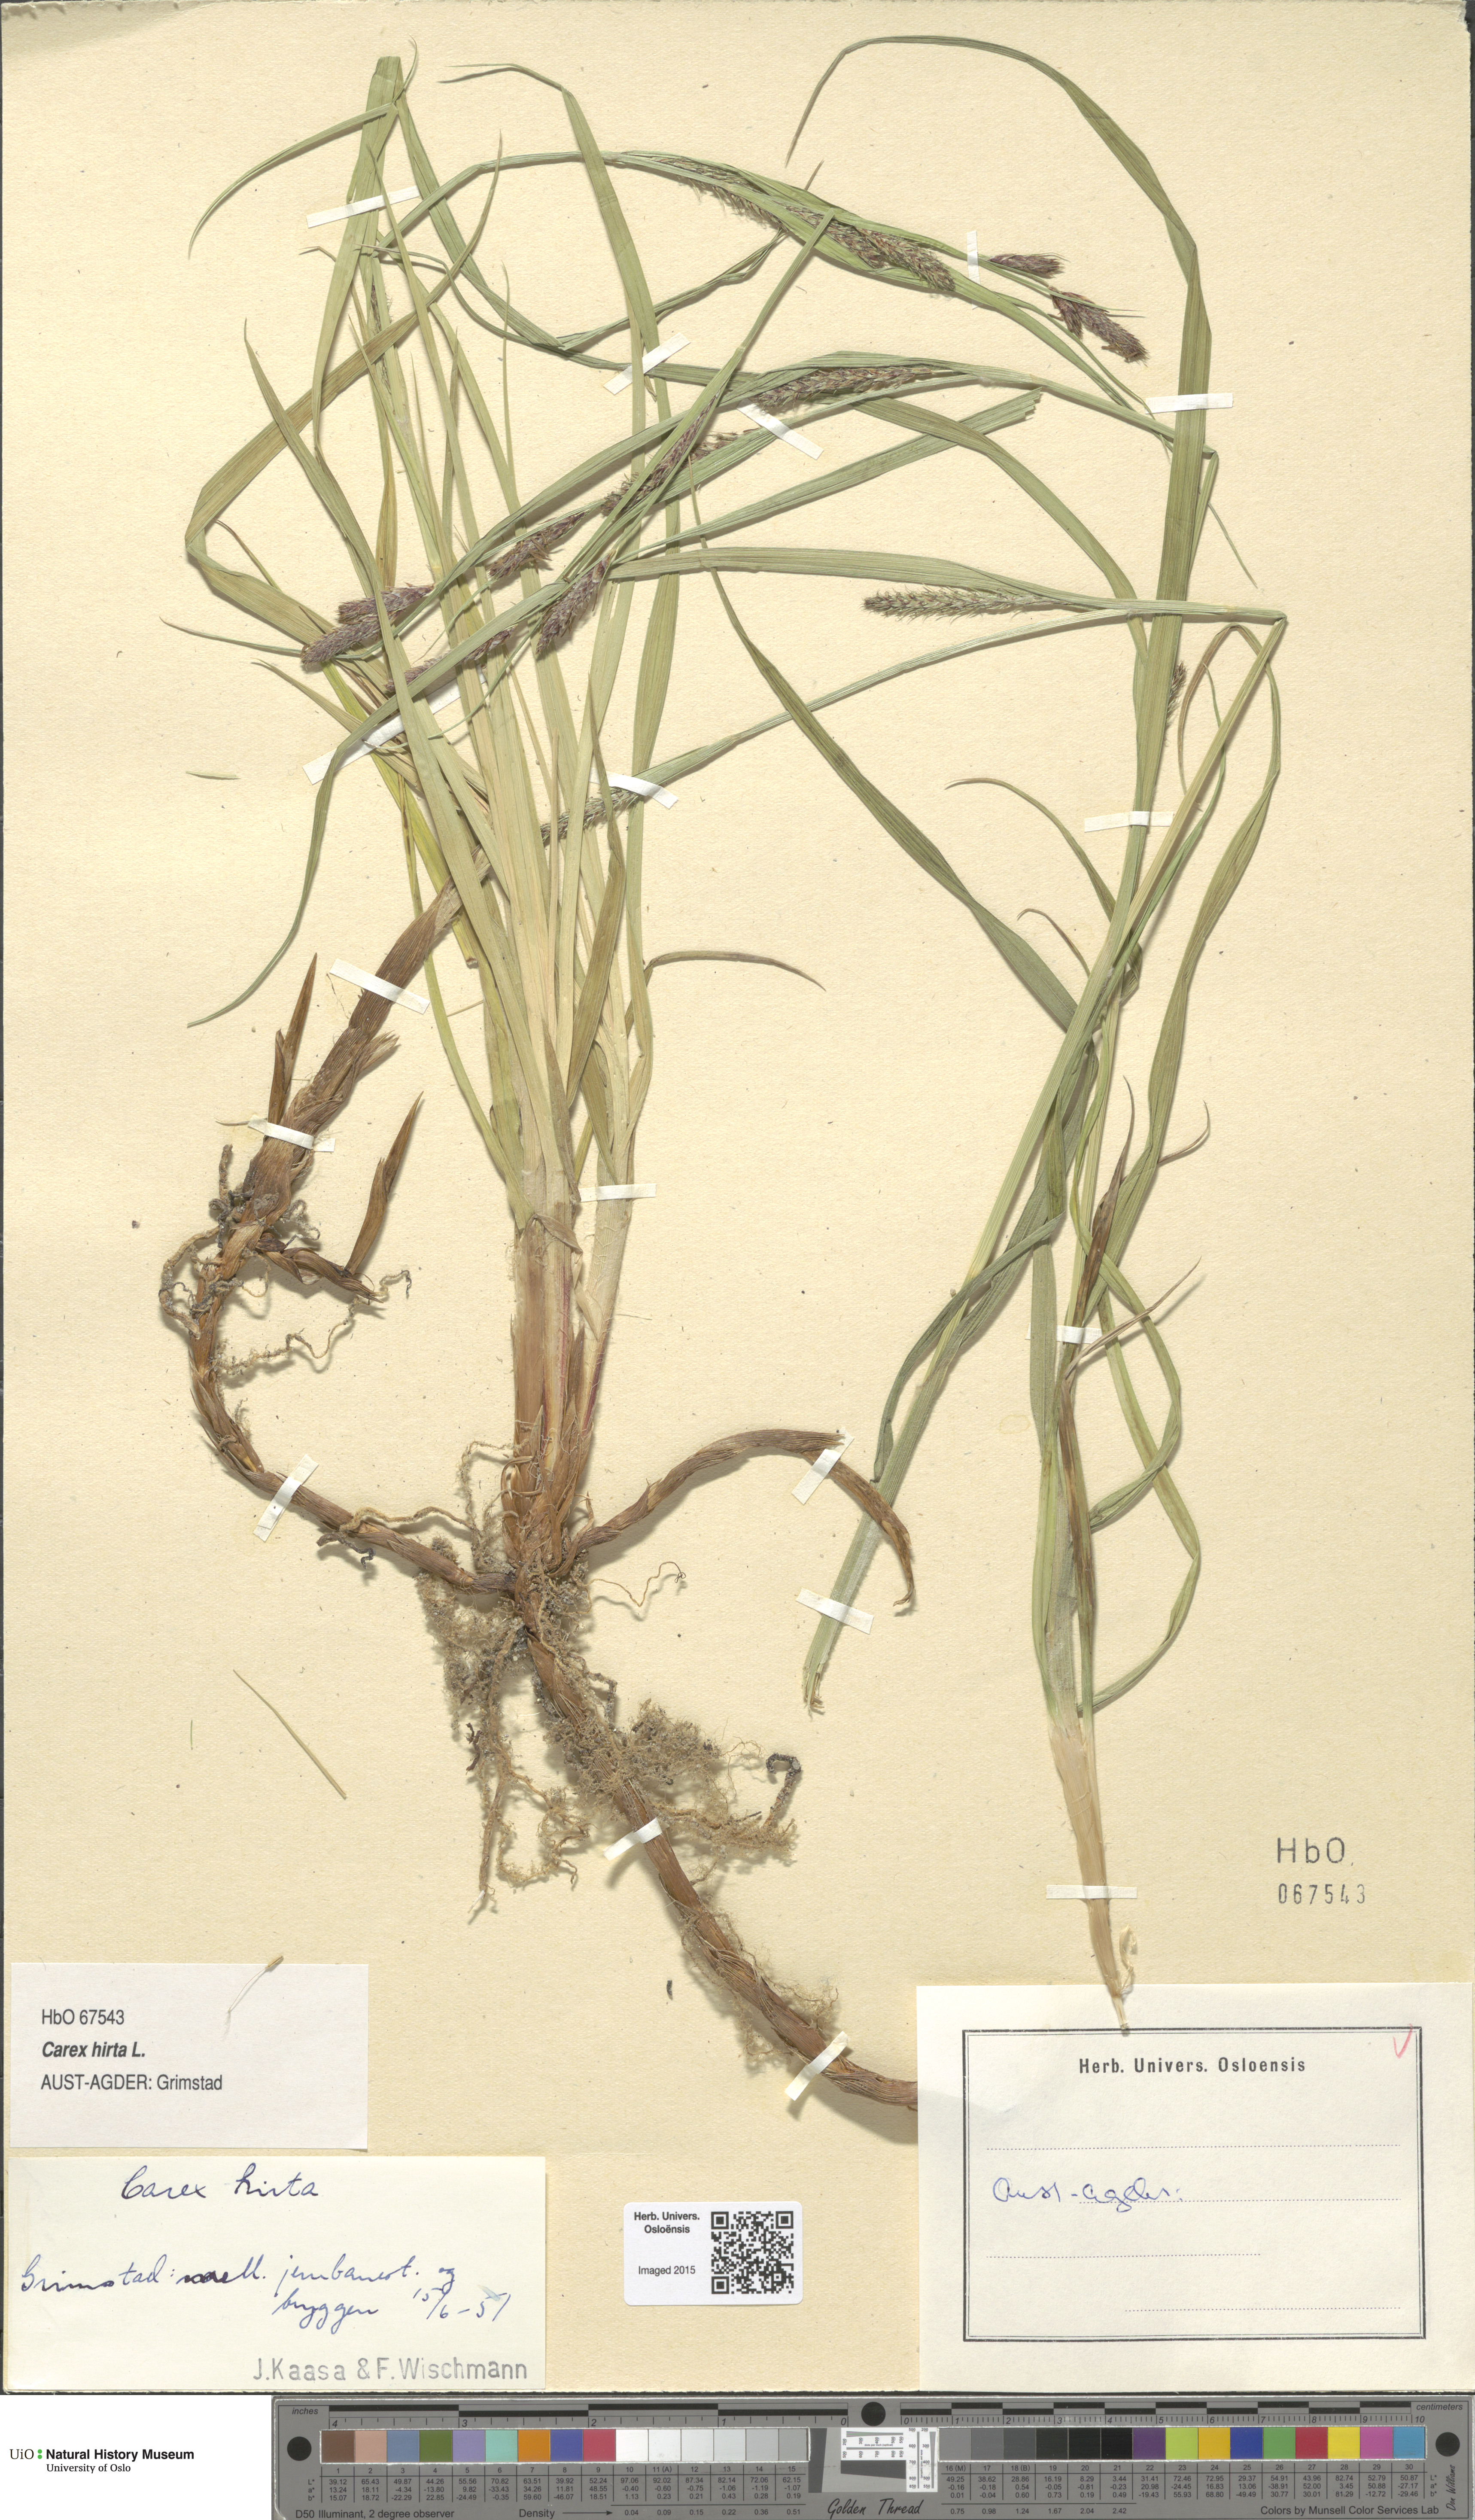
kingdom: Plantae
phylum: Tracheophyta
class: Liliopsida
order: Poales
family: Cyperaceae
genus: Carex
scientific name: Carex hirta
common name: Hairy sedge
